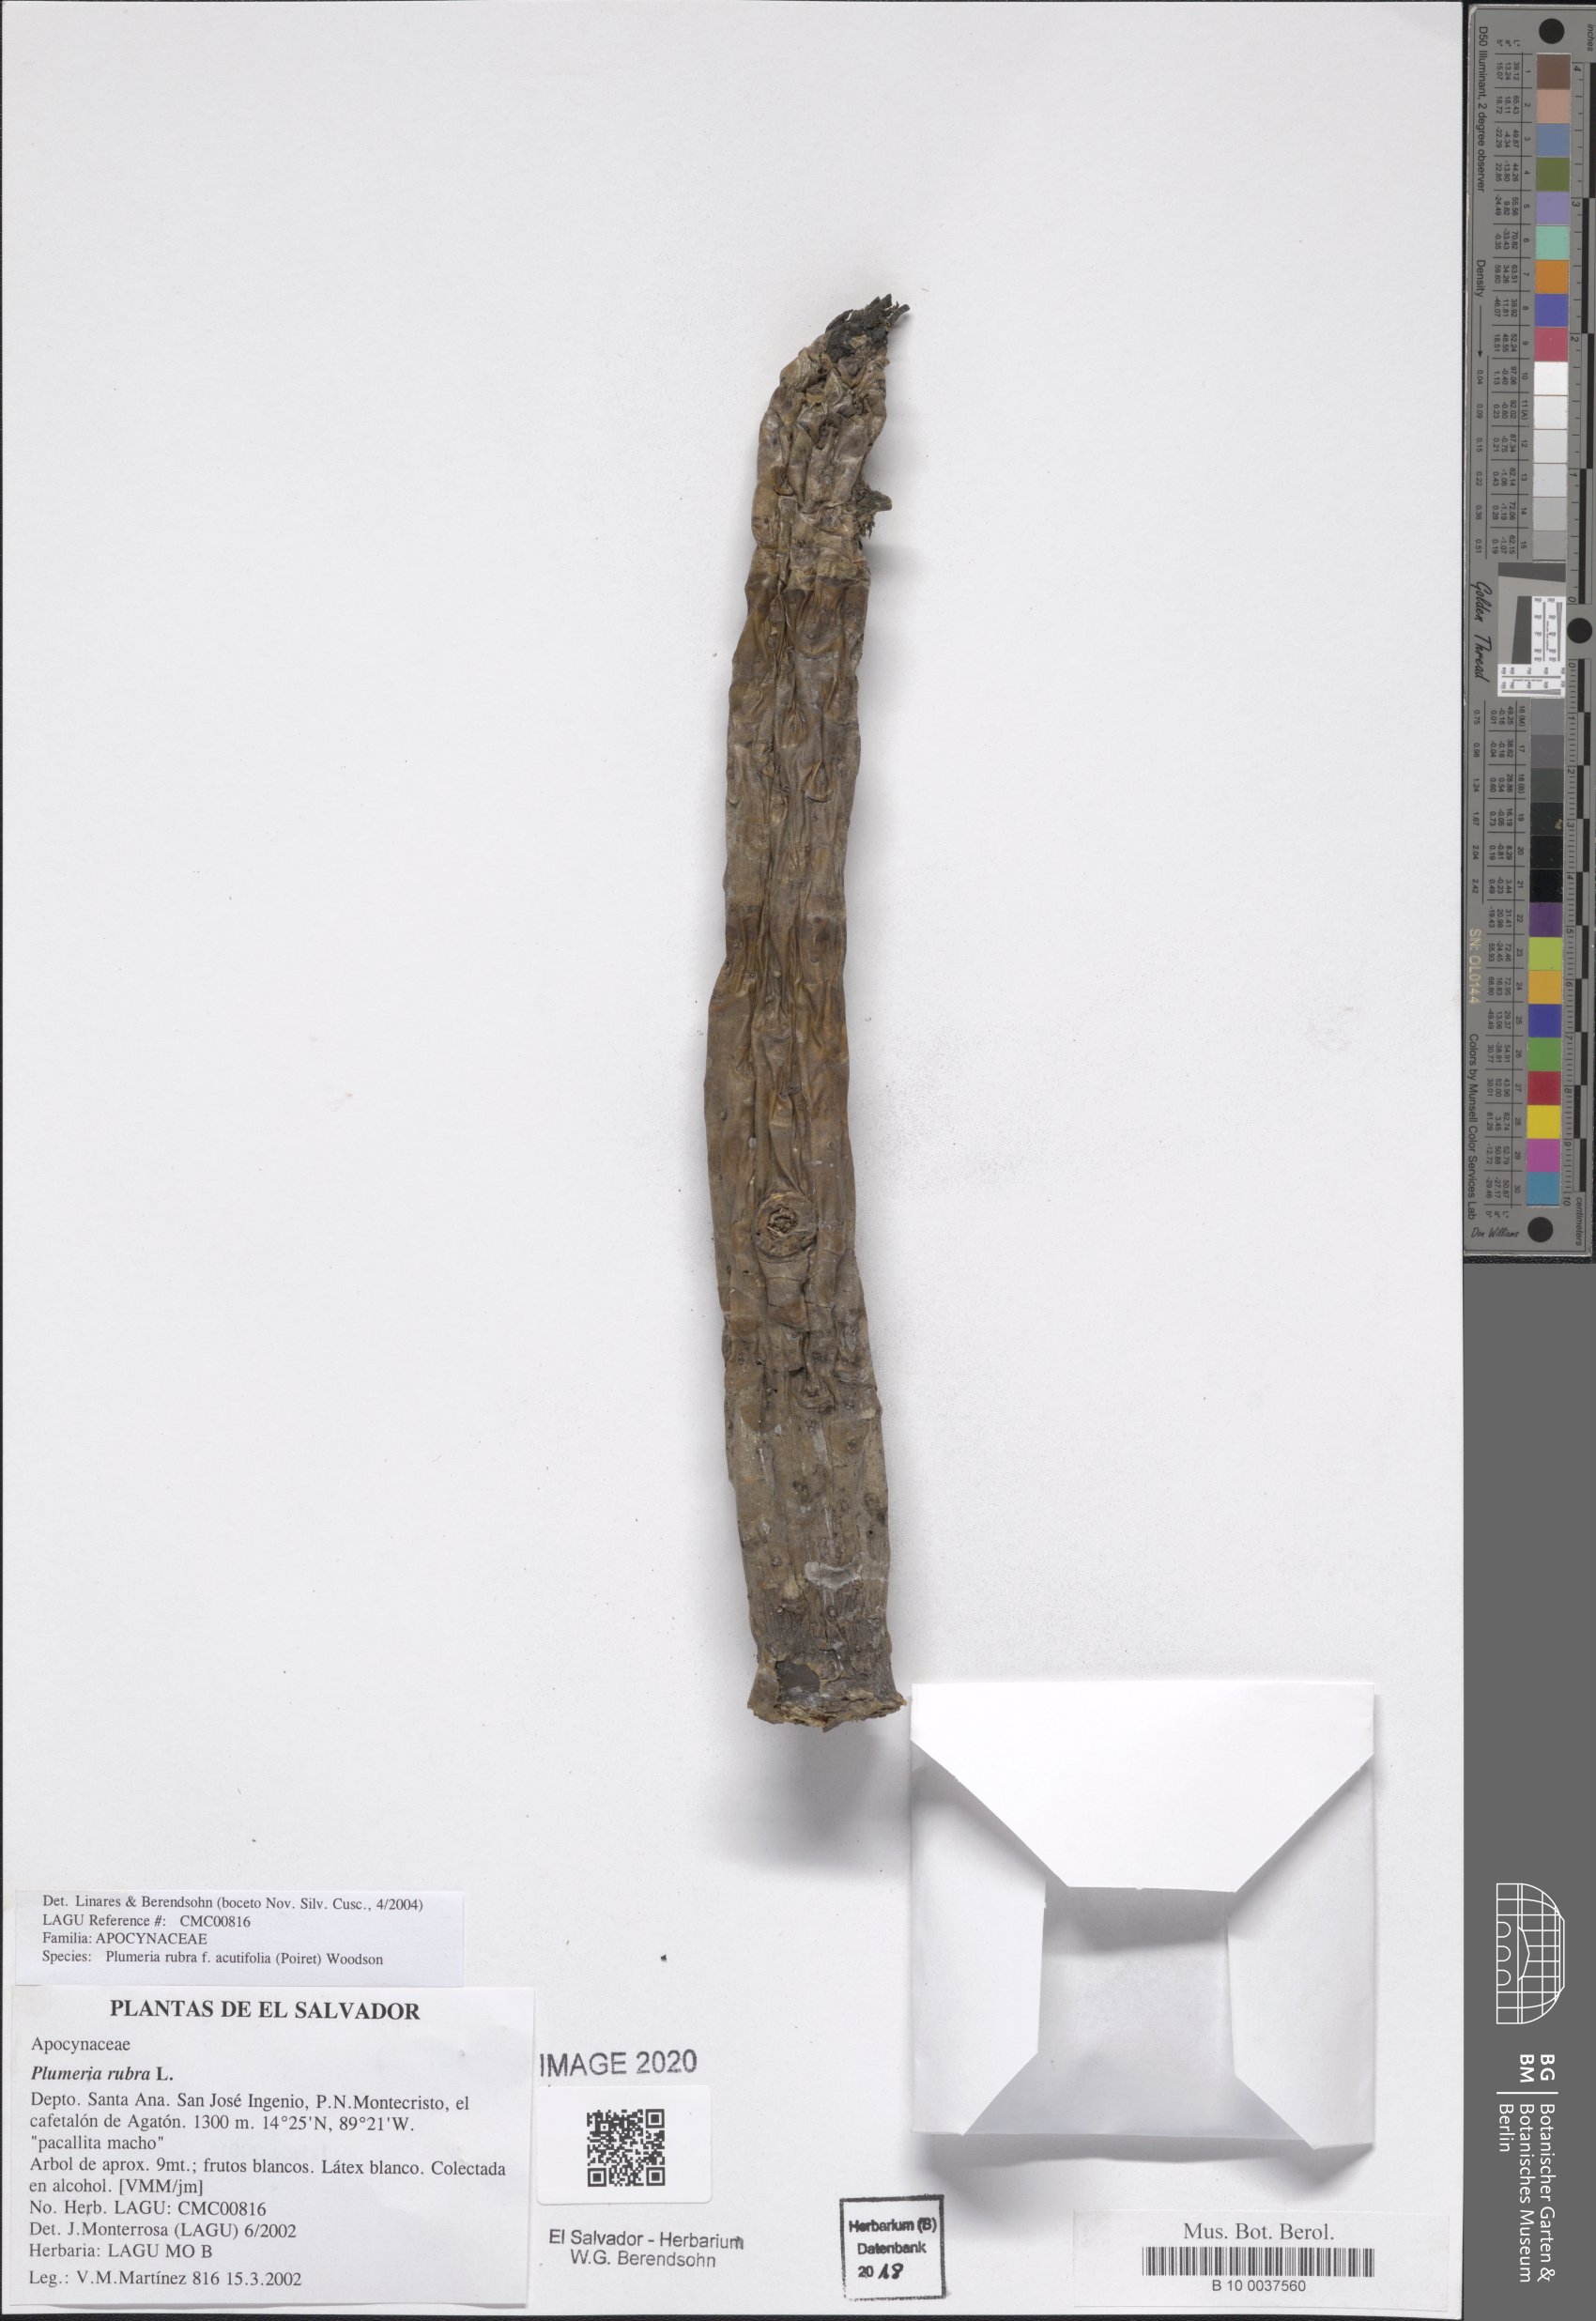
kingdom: Plantae
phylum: Tracheophyta
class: Magnoliopsida
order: Gentianales
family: Apocynaceae
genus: Plumeria
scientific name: Plumeria rubra
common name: Pagoda-tree
